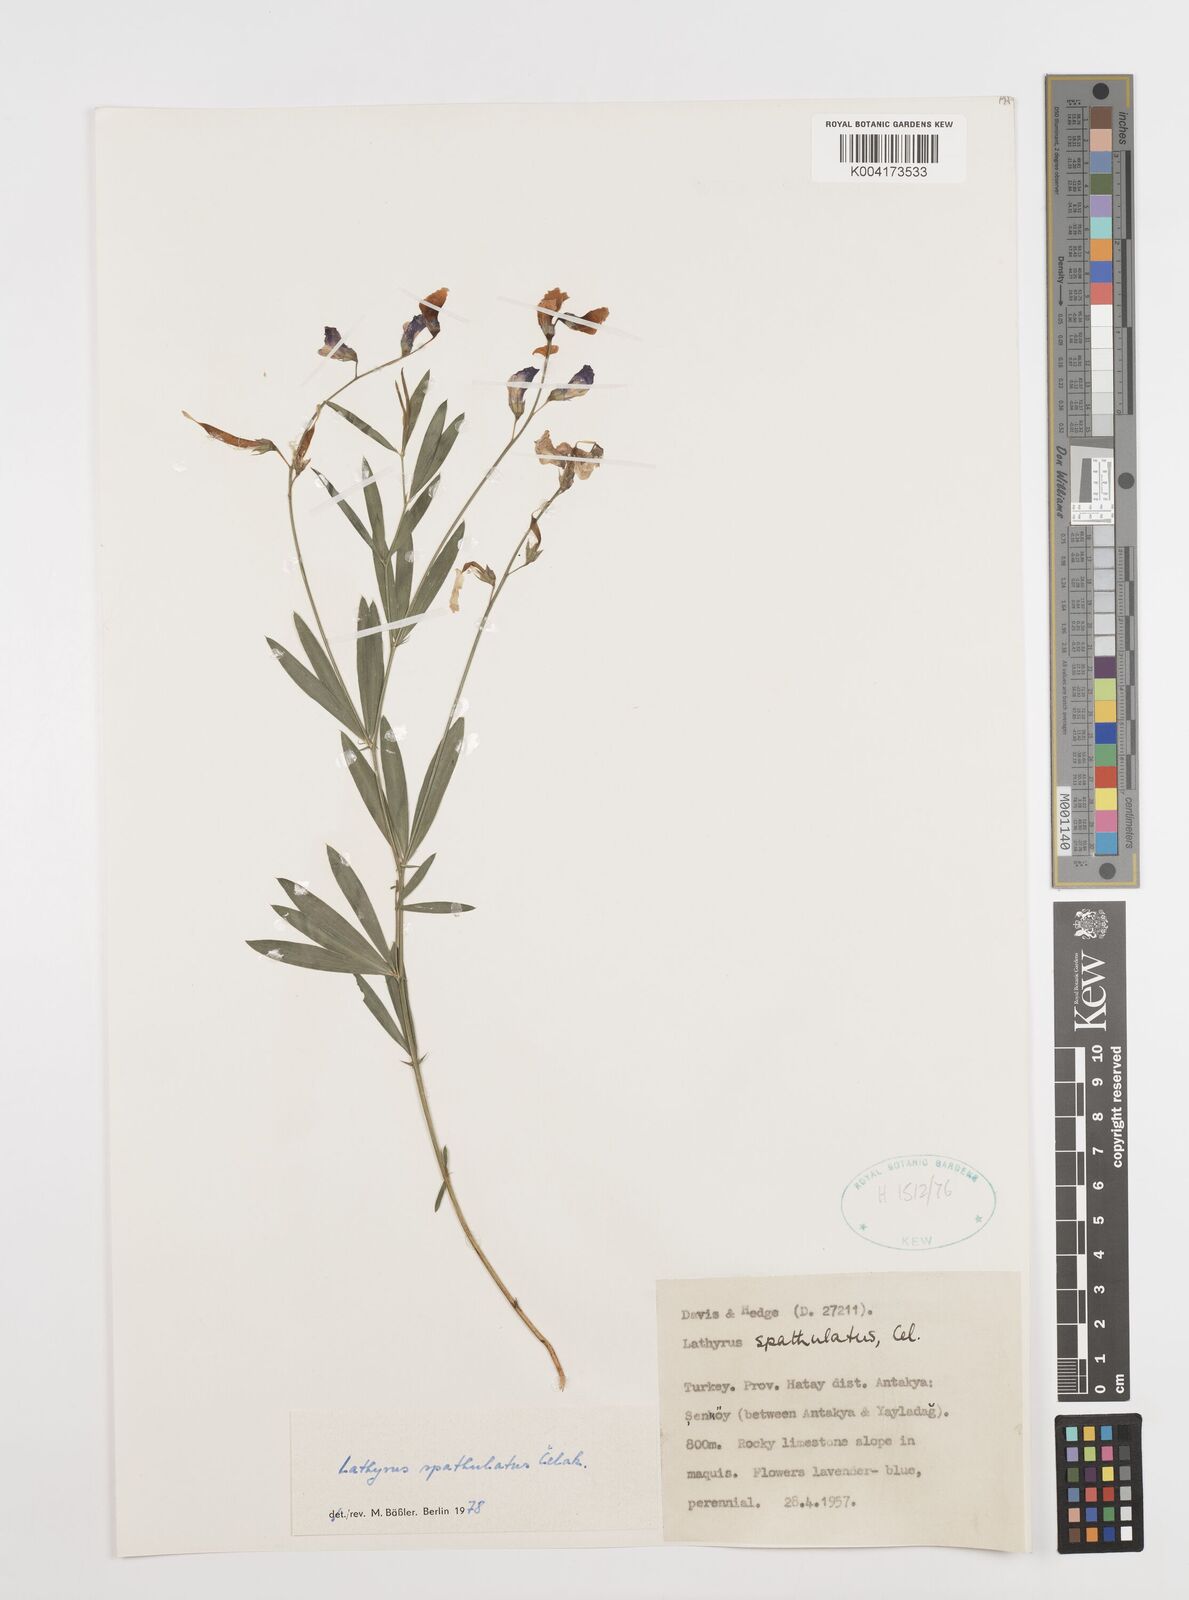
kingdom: Plantae
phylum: Tracheophyta
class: Magnoliopsida
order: Fabales
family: Fabaceae
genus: Lathyrus
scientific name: Lathyrus spathulatus
